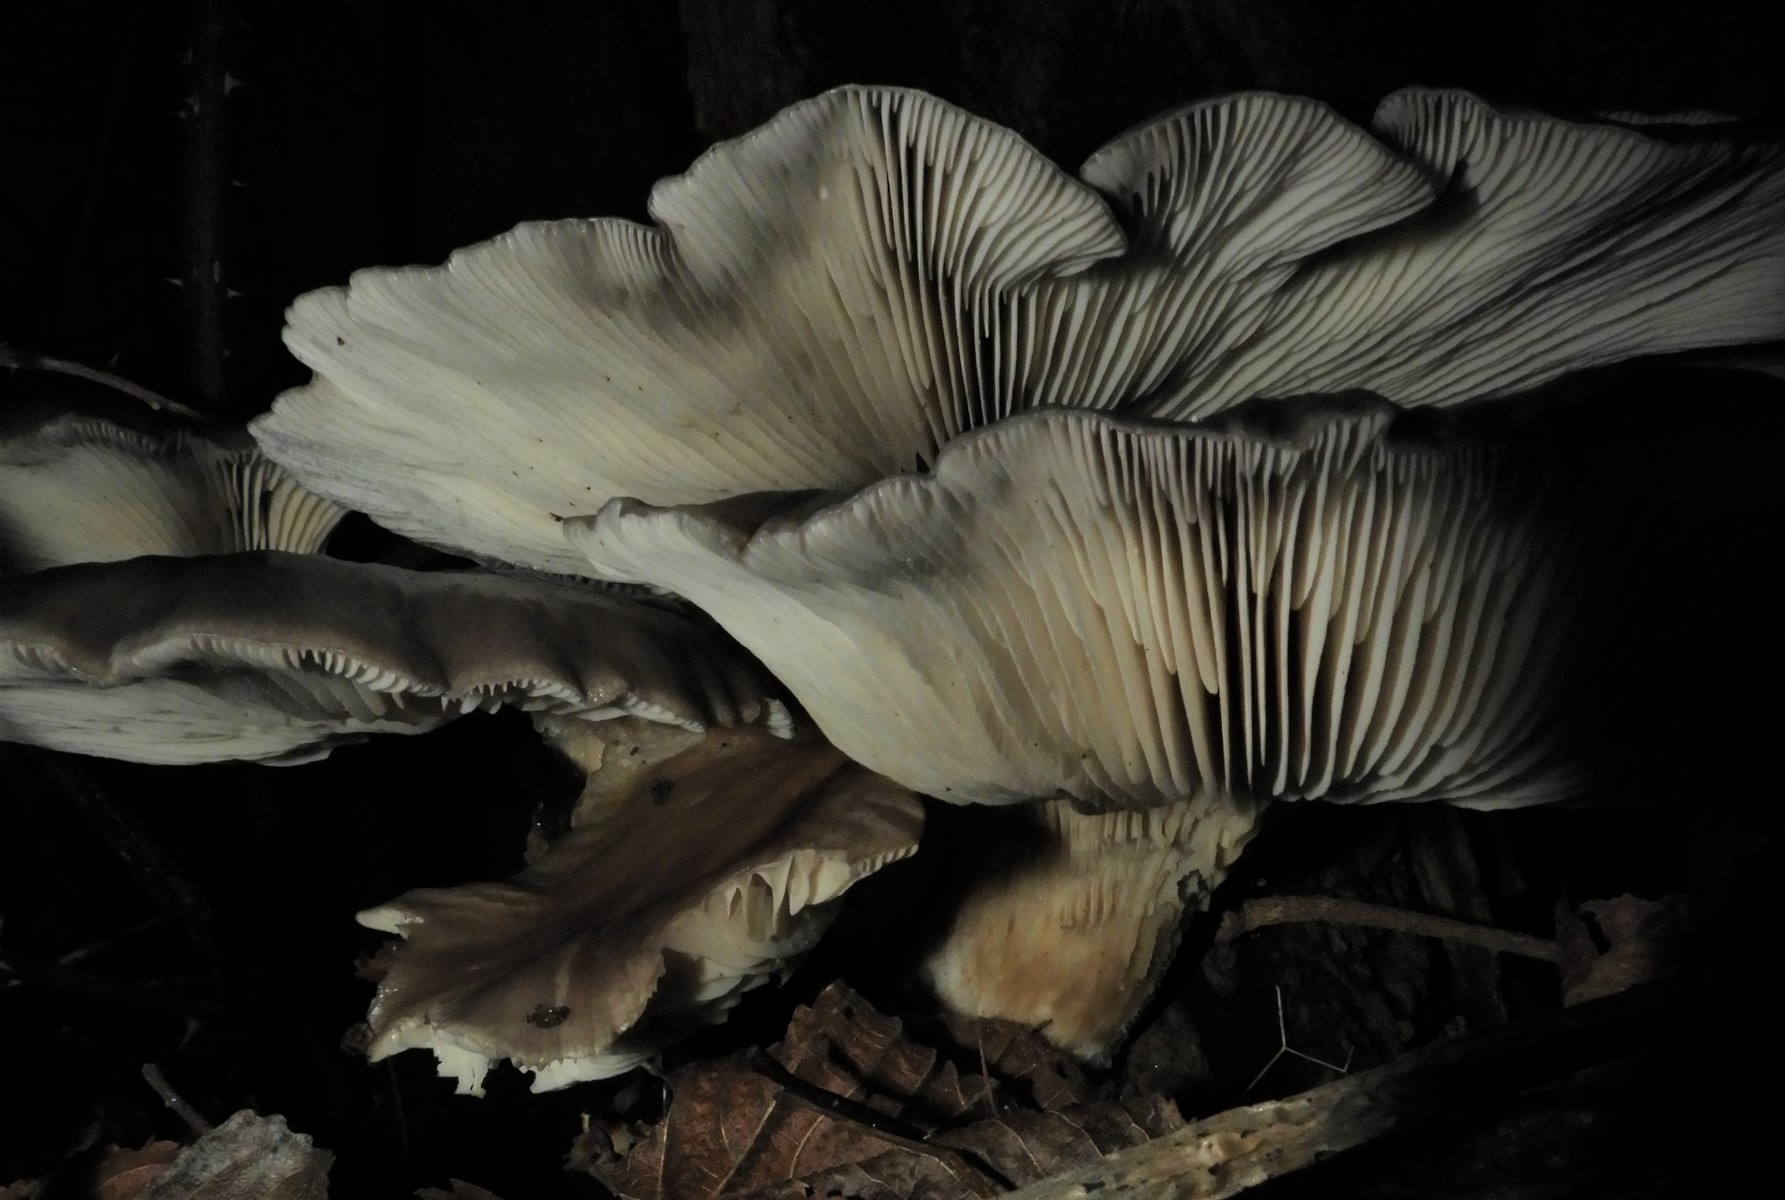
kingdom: Fungi
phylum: Basidiomycota
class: Agaricomycetes
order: Agaricales
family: Pleurotaceae
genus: Pleurotus
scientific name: Pleurotus ostreatus
